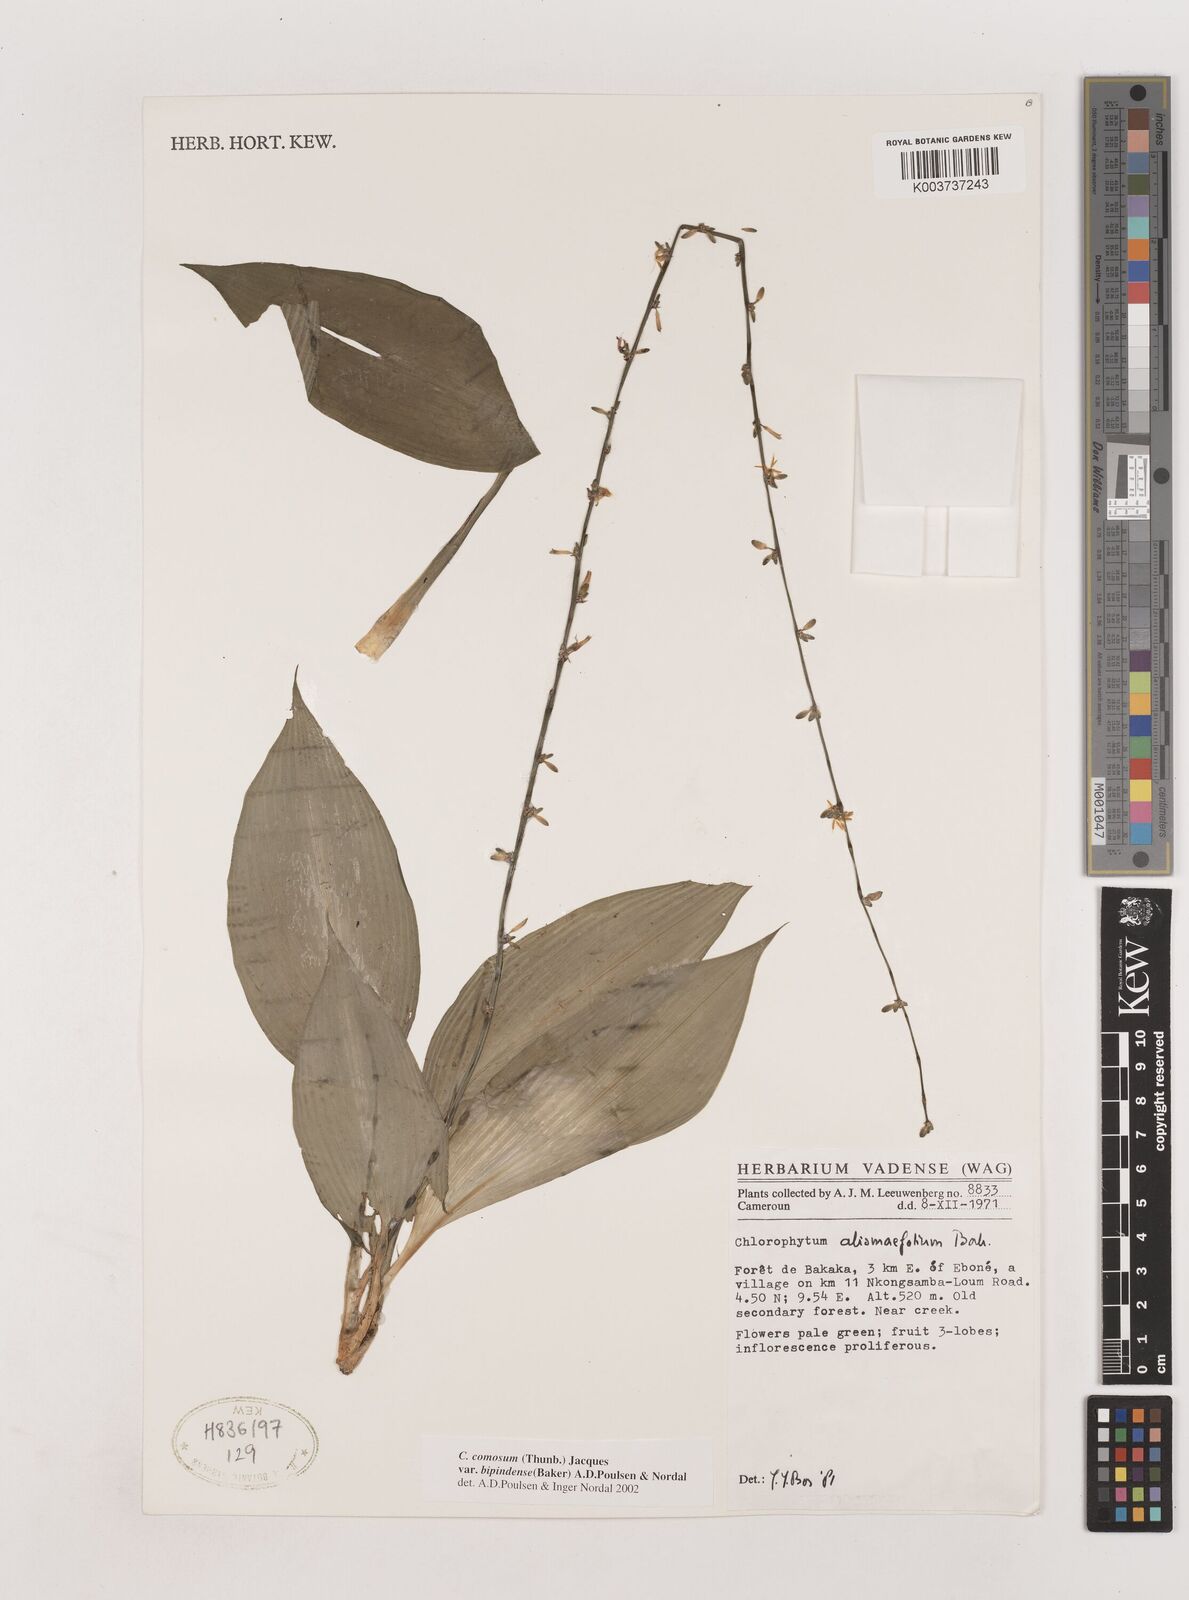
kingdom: Plantae
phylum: Tracheophyta
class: Liliopsida
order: Asparagales
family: Asparagaceae
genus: Chlorophytum
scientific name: Chlorophytum sparsiflorum
